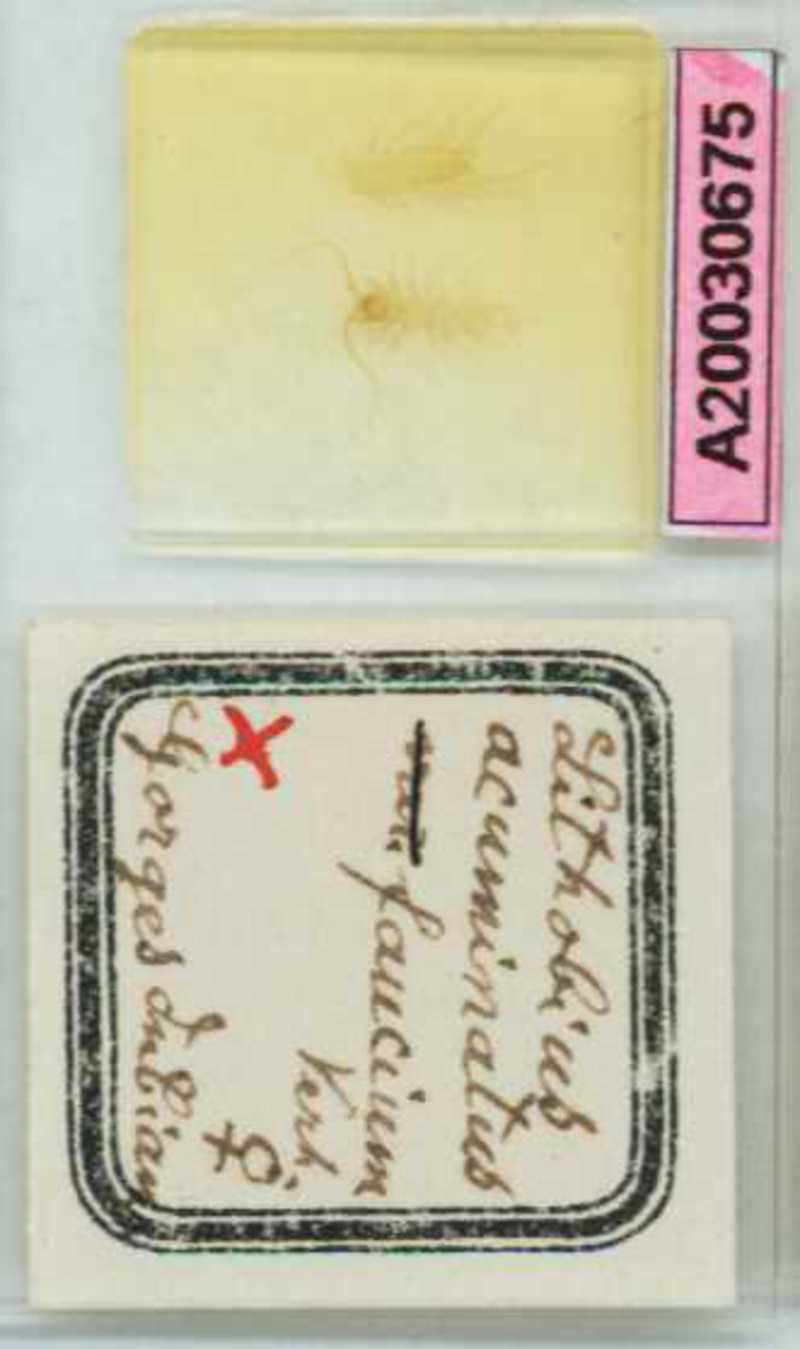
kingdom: Animalia
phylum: Arthropoda
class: Chilopoda
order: Lithobiomorpha
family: Lithobiidae
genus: Lithobius
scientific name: Lithobius cassinensis
